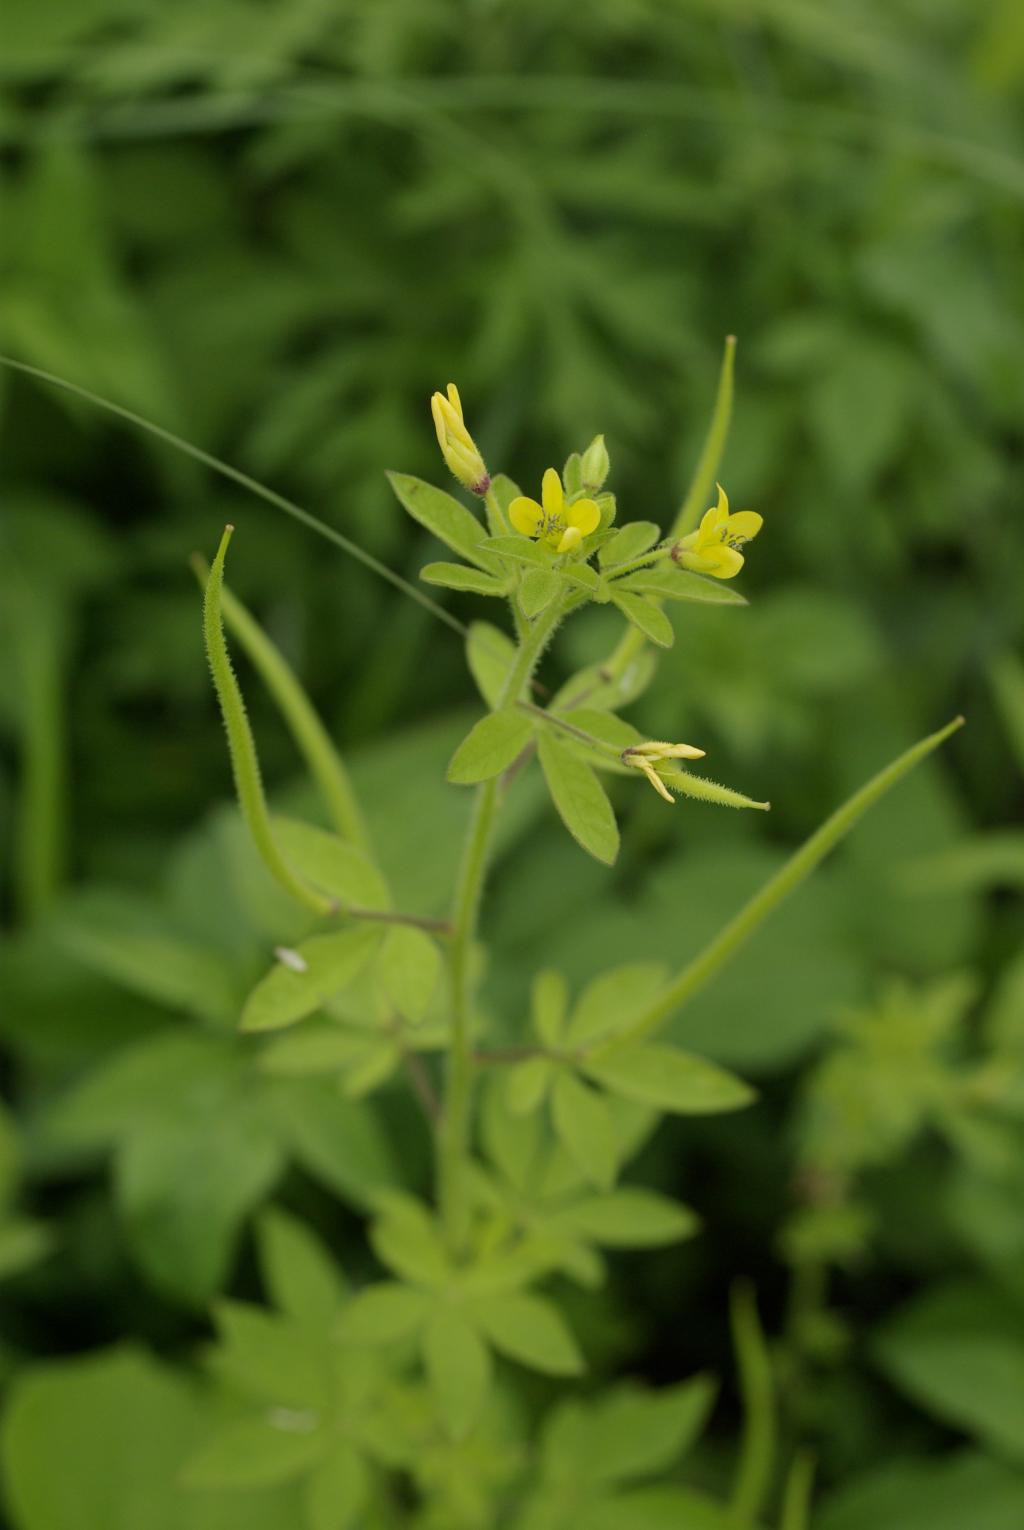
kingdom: Plantae
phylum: Tracheophyta
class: Magnoliopsida
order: Brassicales
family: Cleomaceae
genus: Arivela
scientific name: Arivela viscosa
